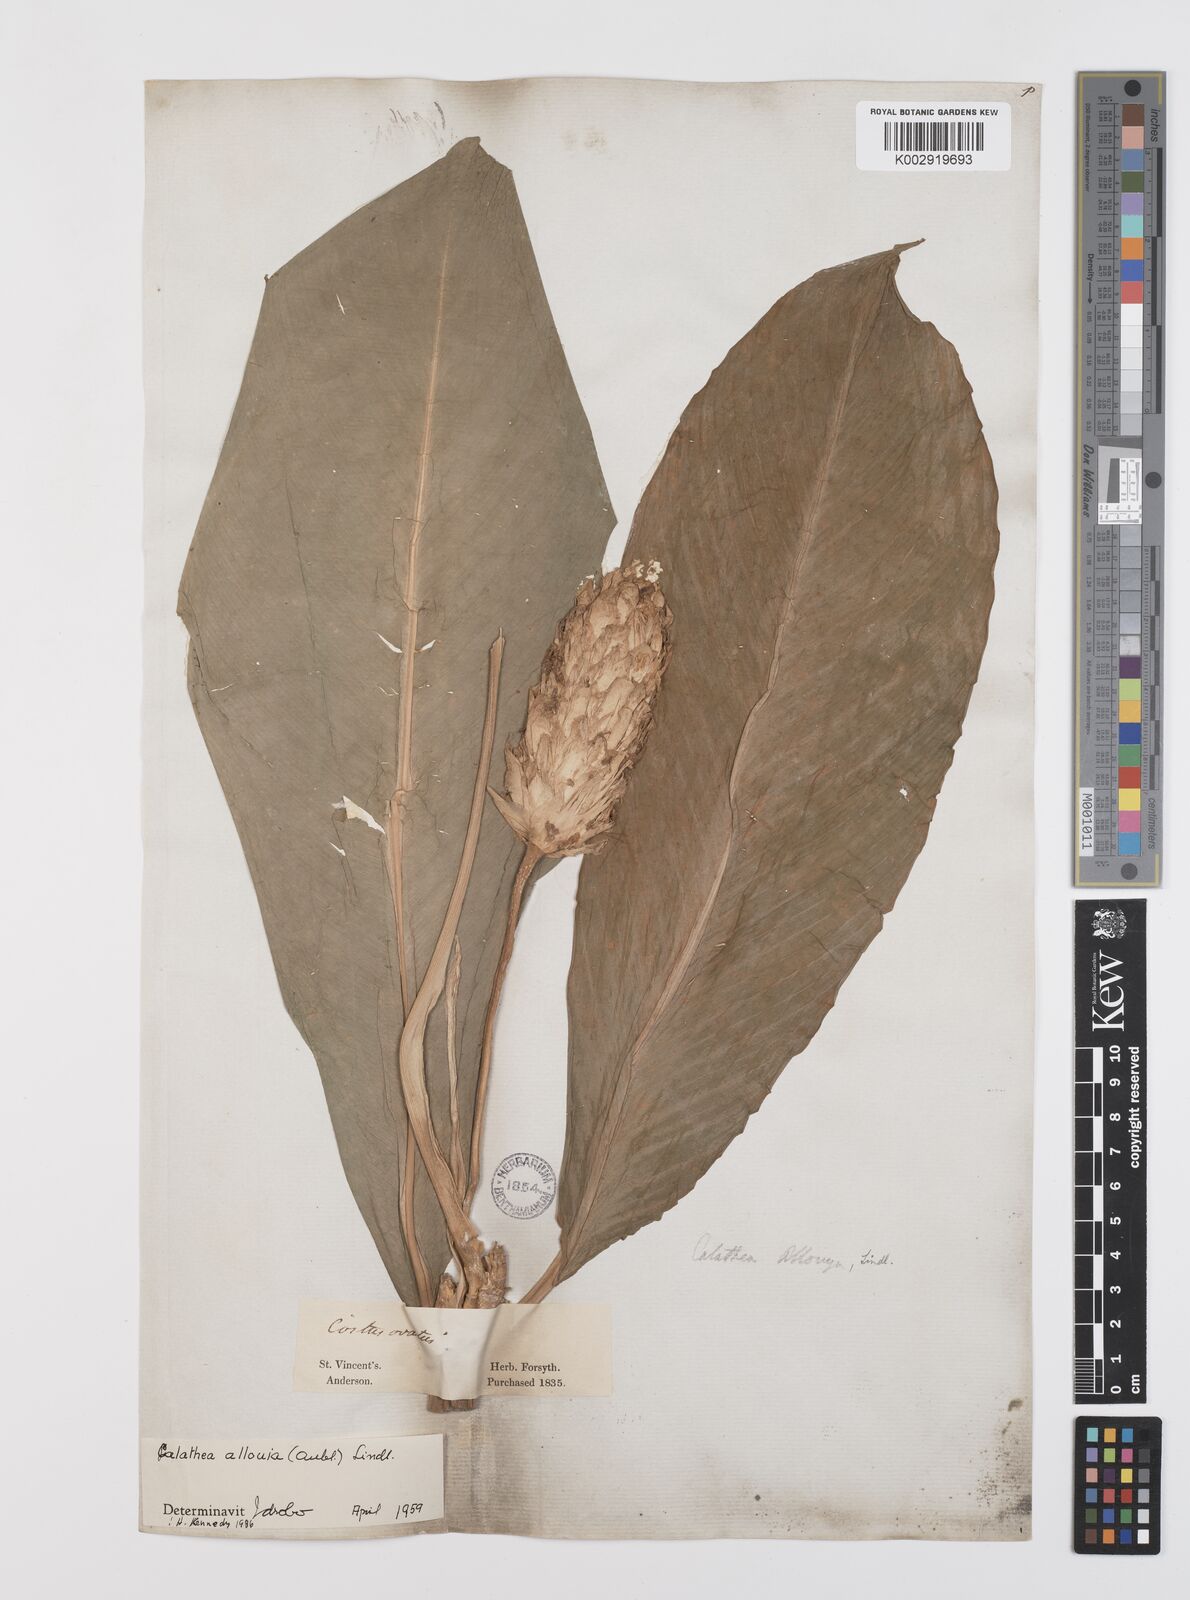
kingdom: Plantae
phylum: Tracheophyta
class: Liliopsida
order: Zingiberales
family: Marantaceae
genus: Goeppertia
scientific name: Goeppertia allouia
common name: Sweet corn-tuber
